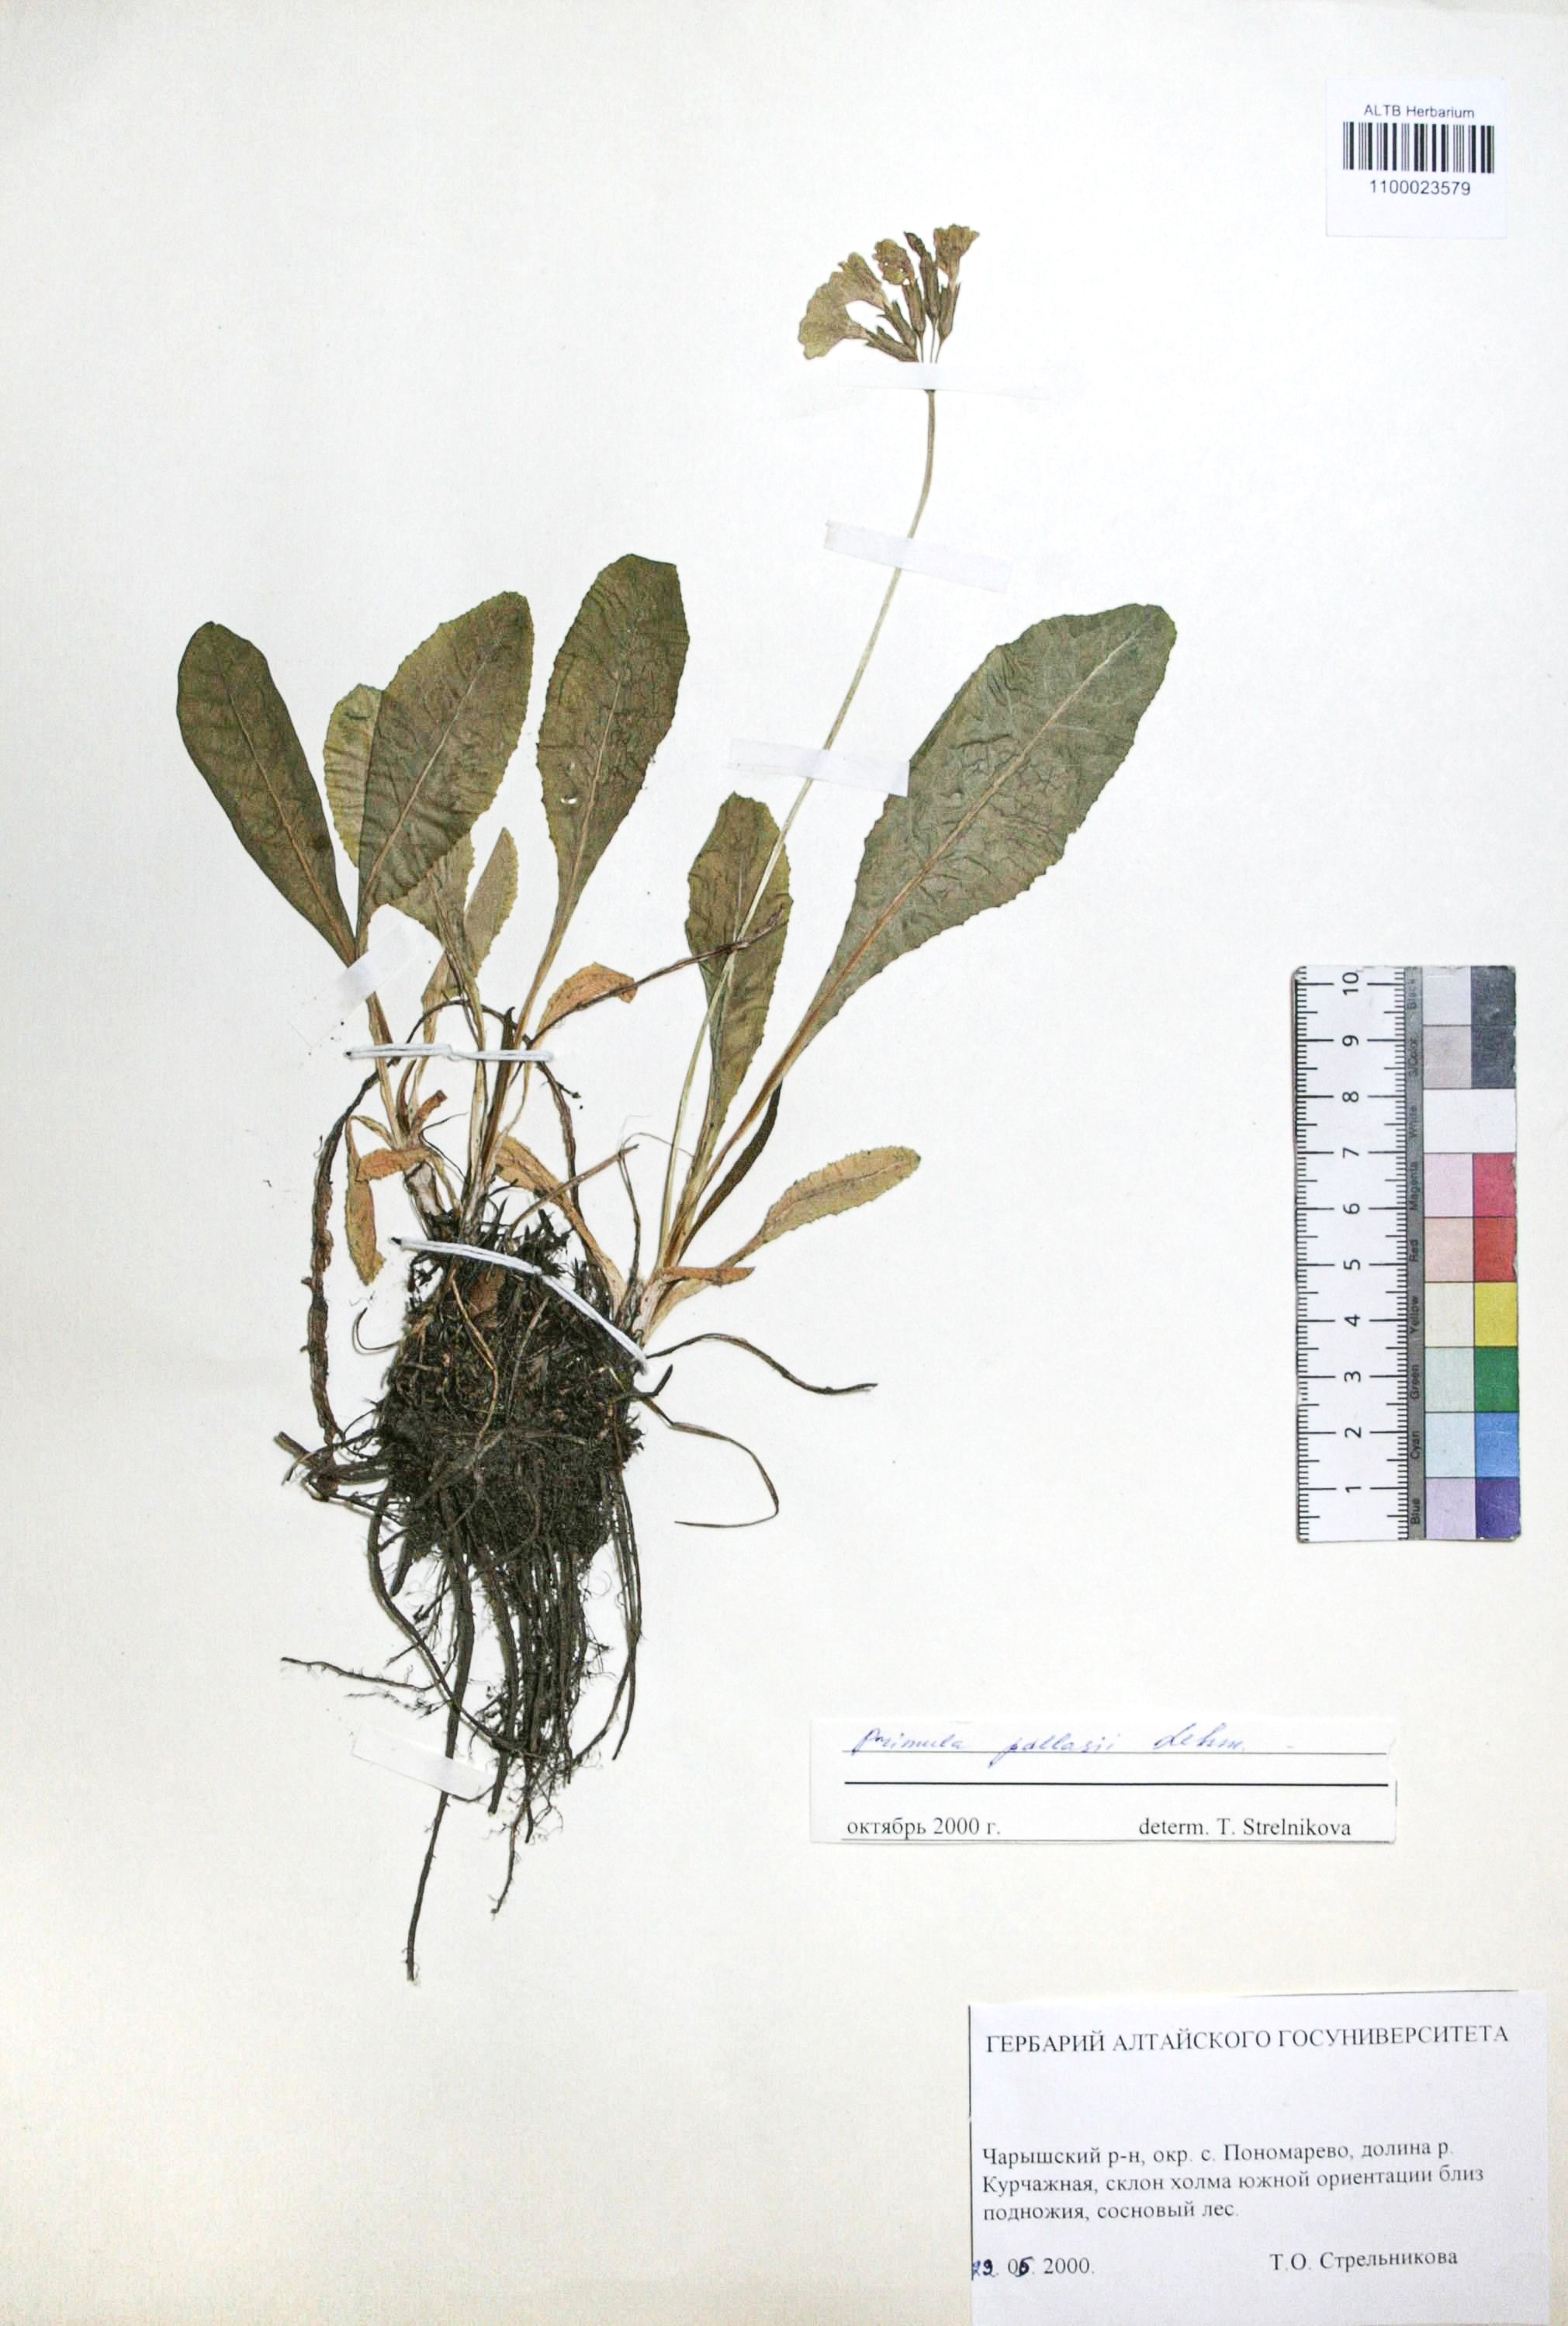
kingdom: Plantae
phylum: Tracheophyta
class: Magnoliopsida
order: Ericales
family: Primulaceae
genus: Primula
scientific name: Primula elatior
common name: Oxlip
